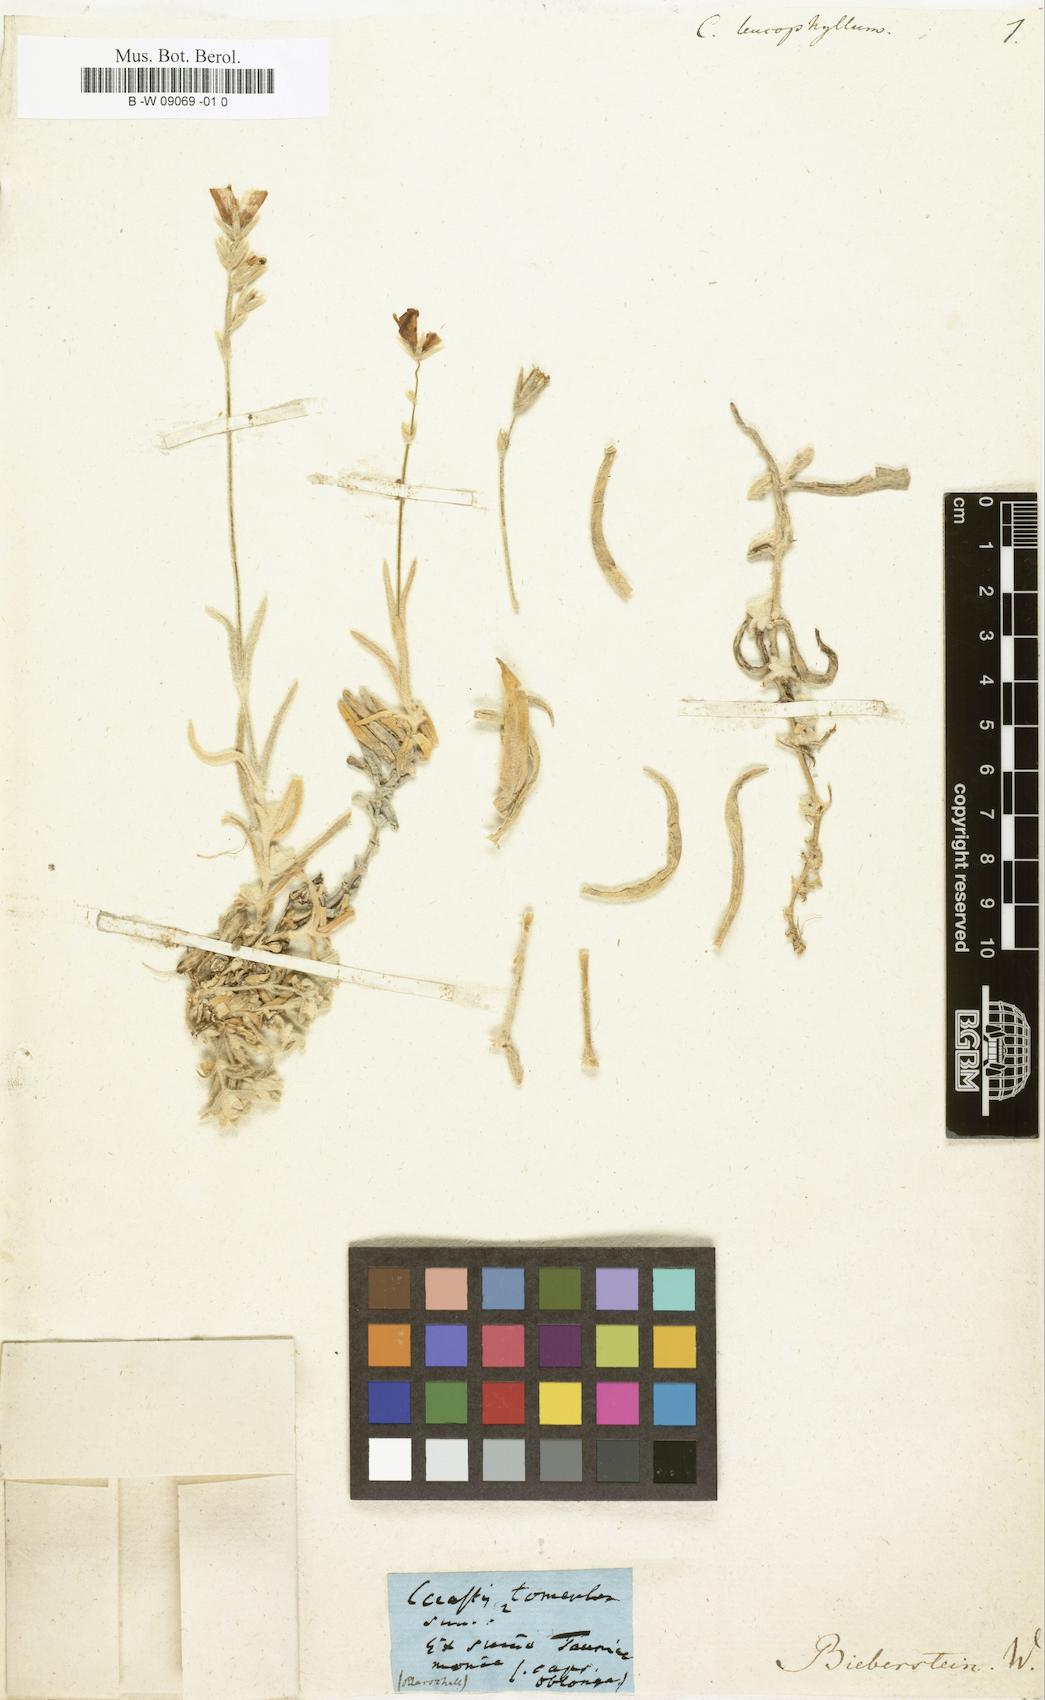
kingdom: Plantae
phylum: Tracheophyta
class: Magnoliopsida
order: Caryophyllales
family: Caryophyllaceae
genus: Cerastium
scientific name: Cerastium
